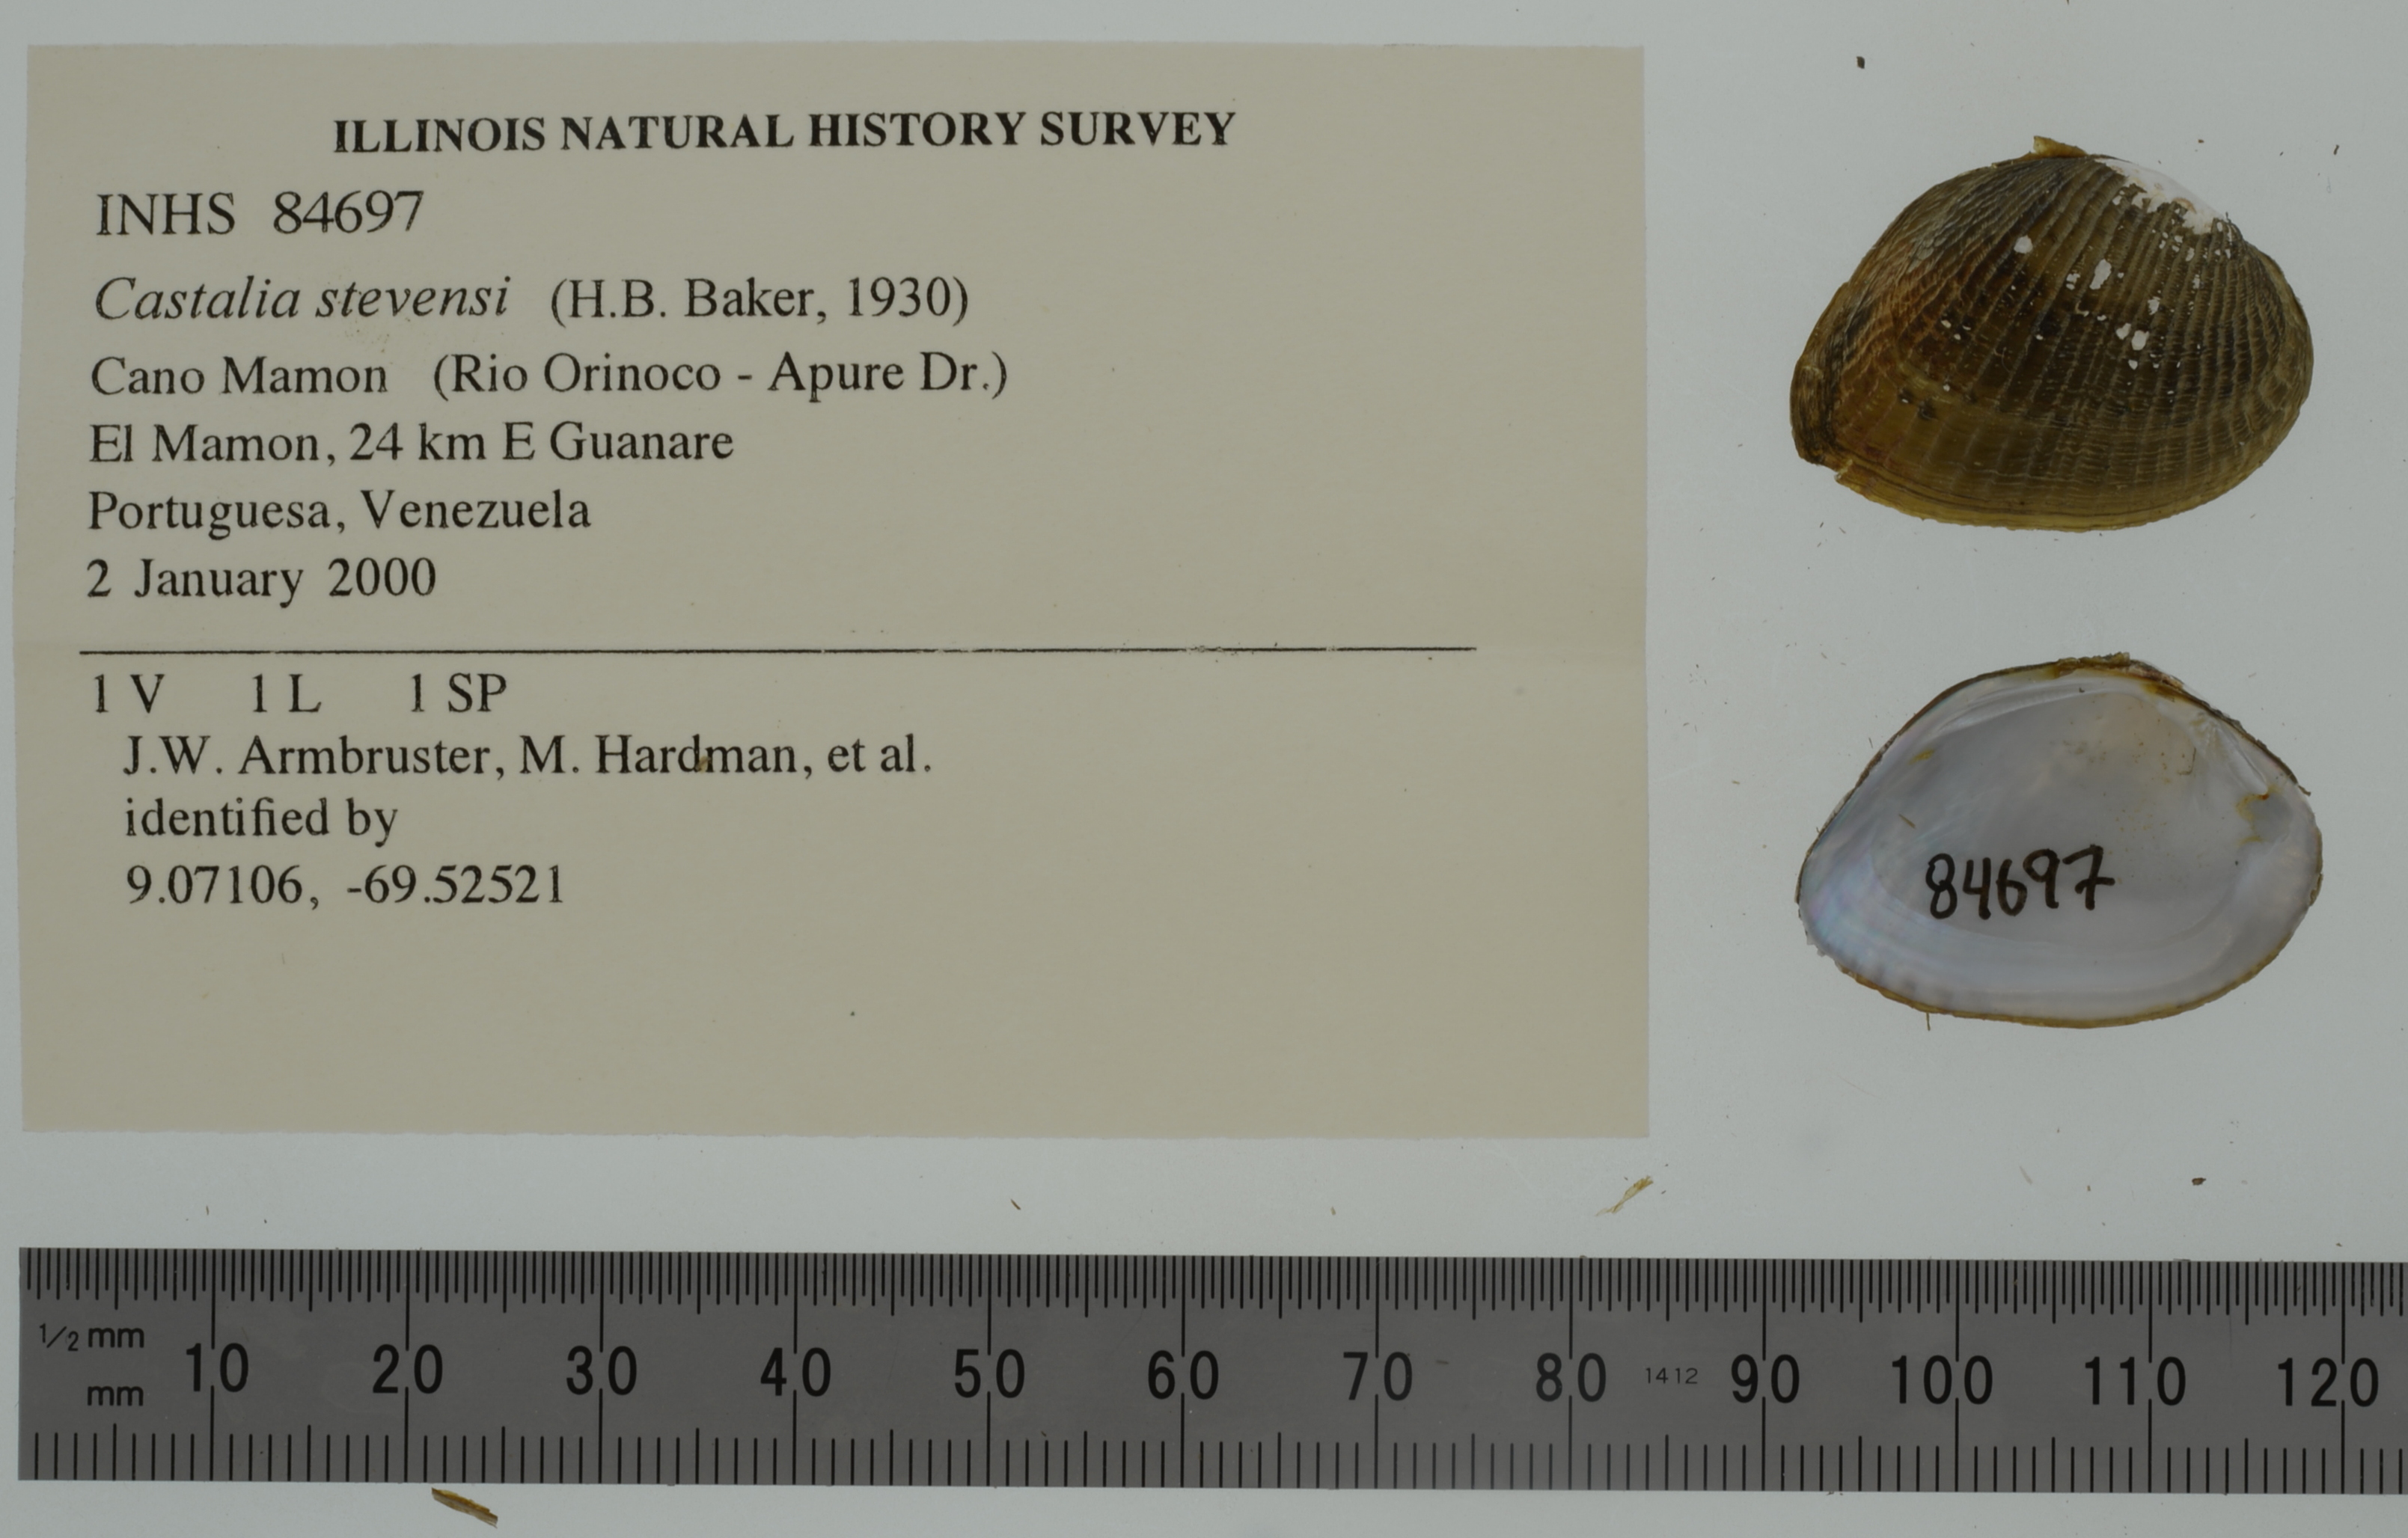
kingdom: Animalia
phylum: Mollusca
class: Bivalvia
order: Unionida
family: Hyriidae
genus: Castalia
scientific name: Castalia stevensi
